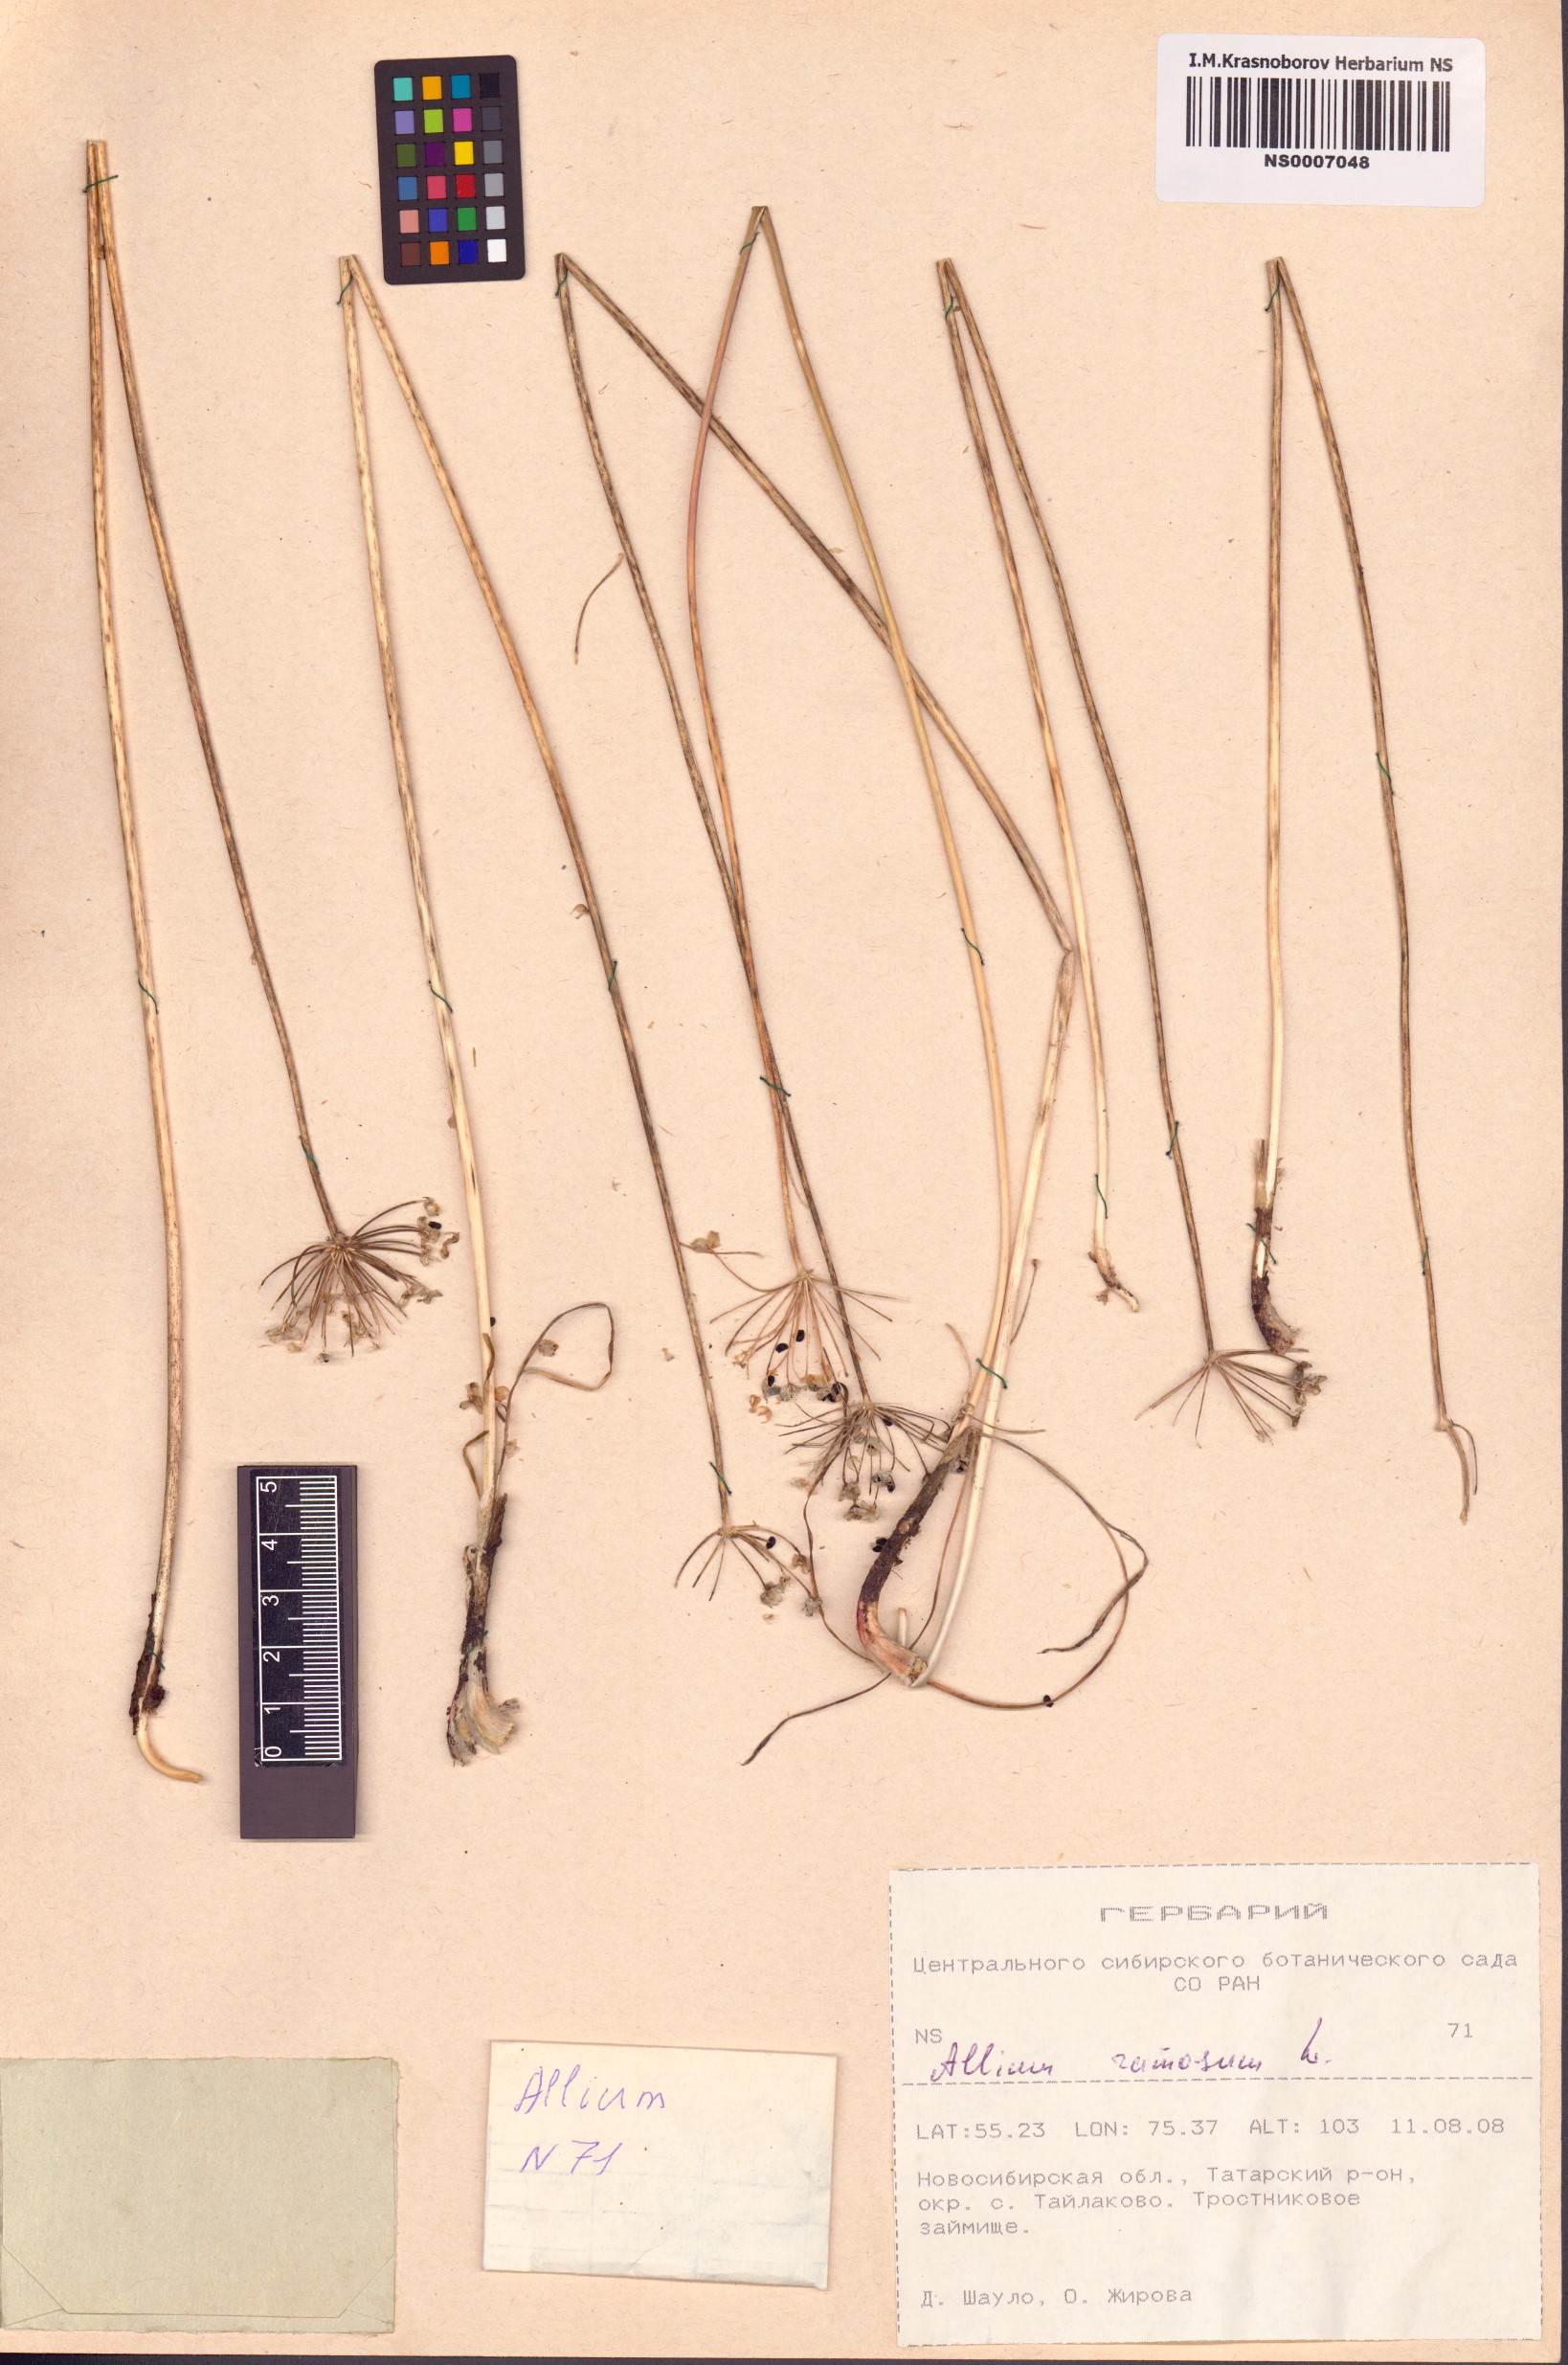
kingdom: Plantae
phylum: Tracheophyta
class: Liliopsida
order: Asparagales
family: Amaryllidaceae
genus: Allium
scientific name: Allium ramosum
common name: Fragrant garlic
